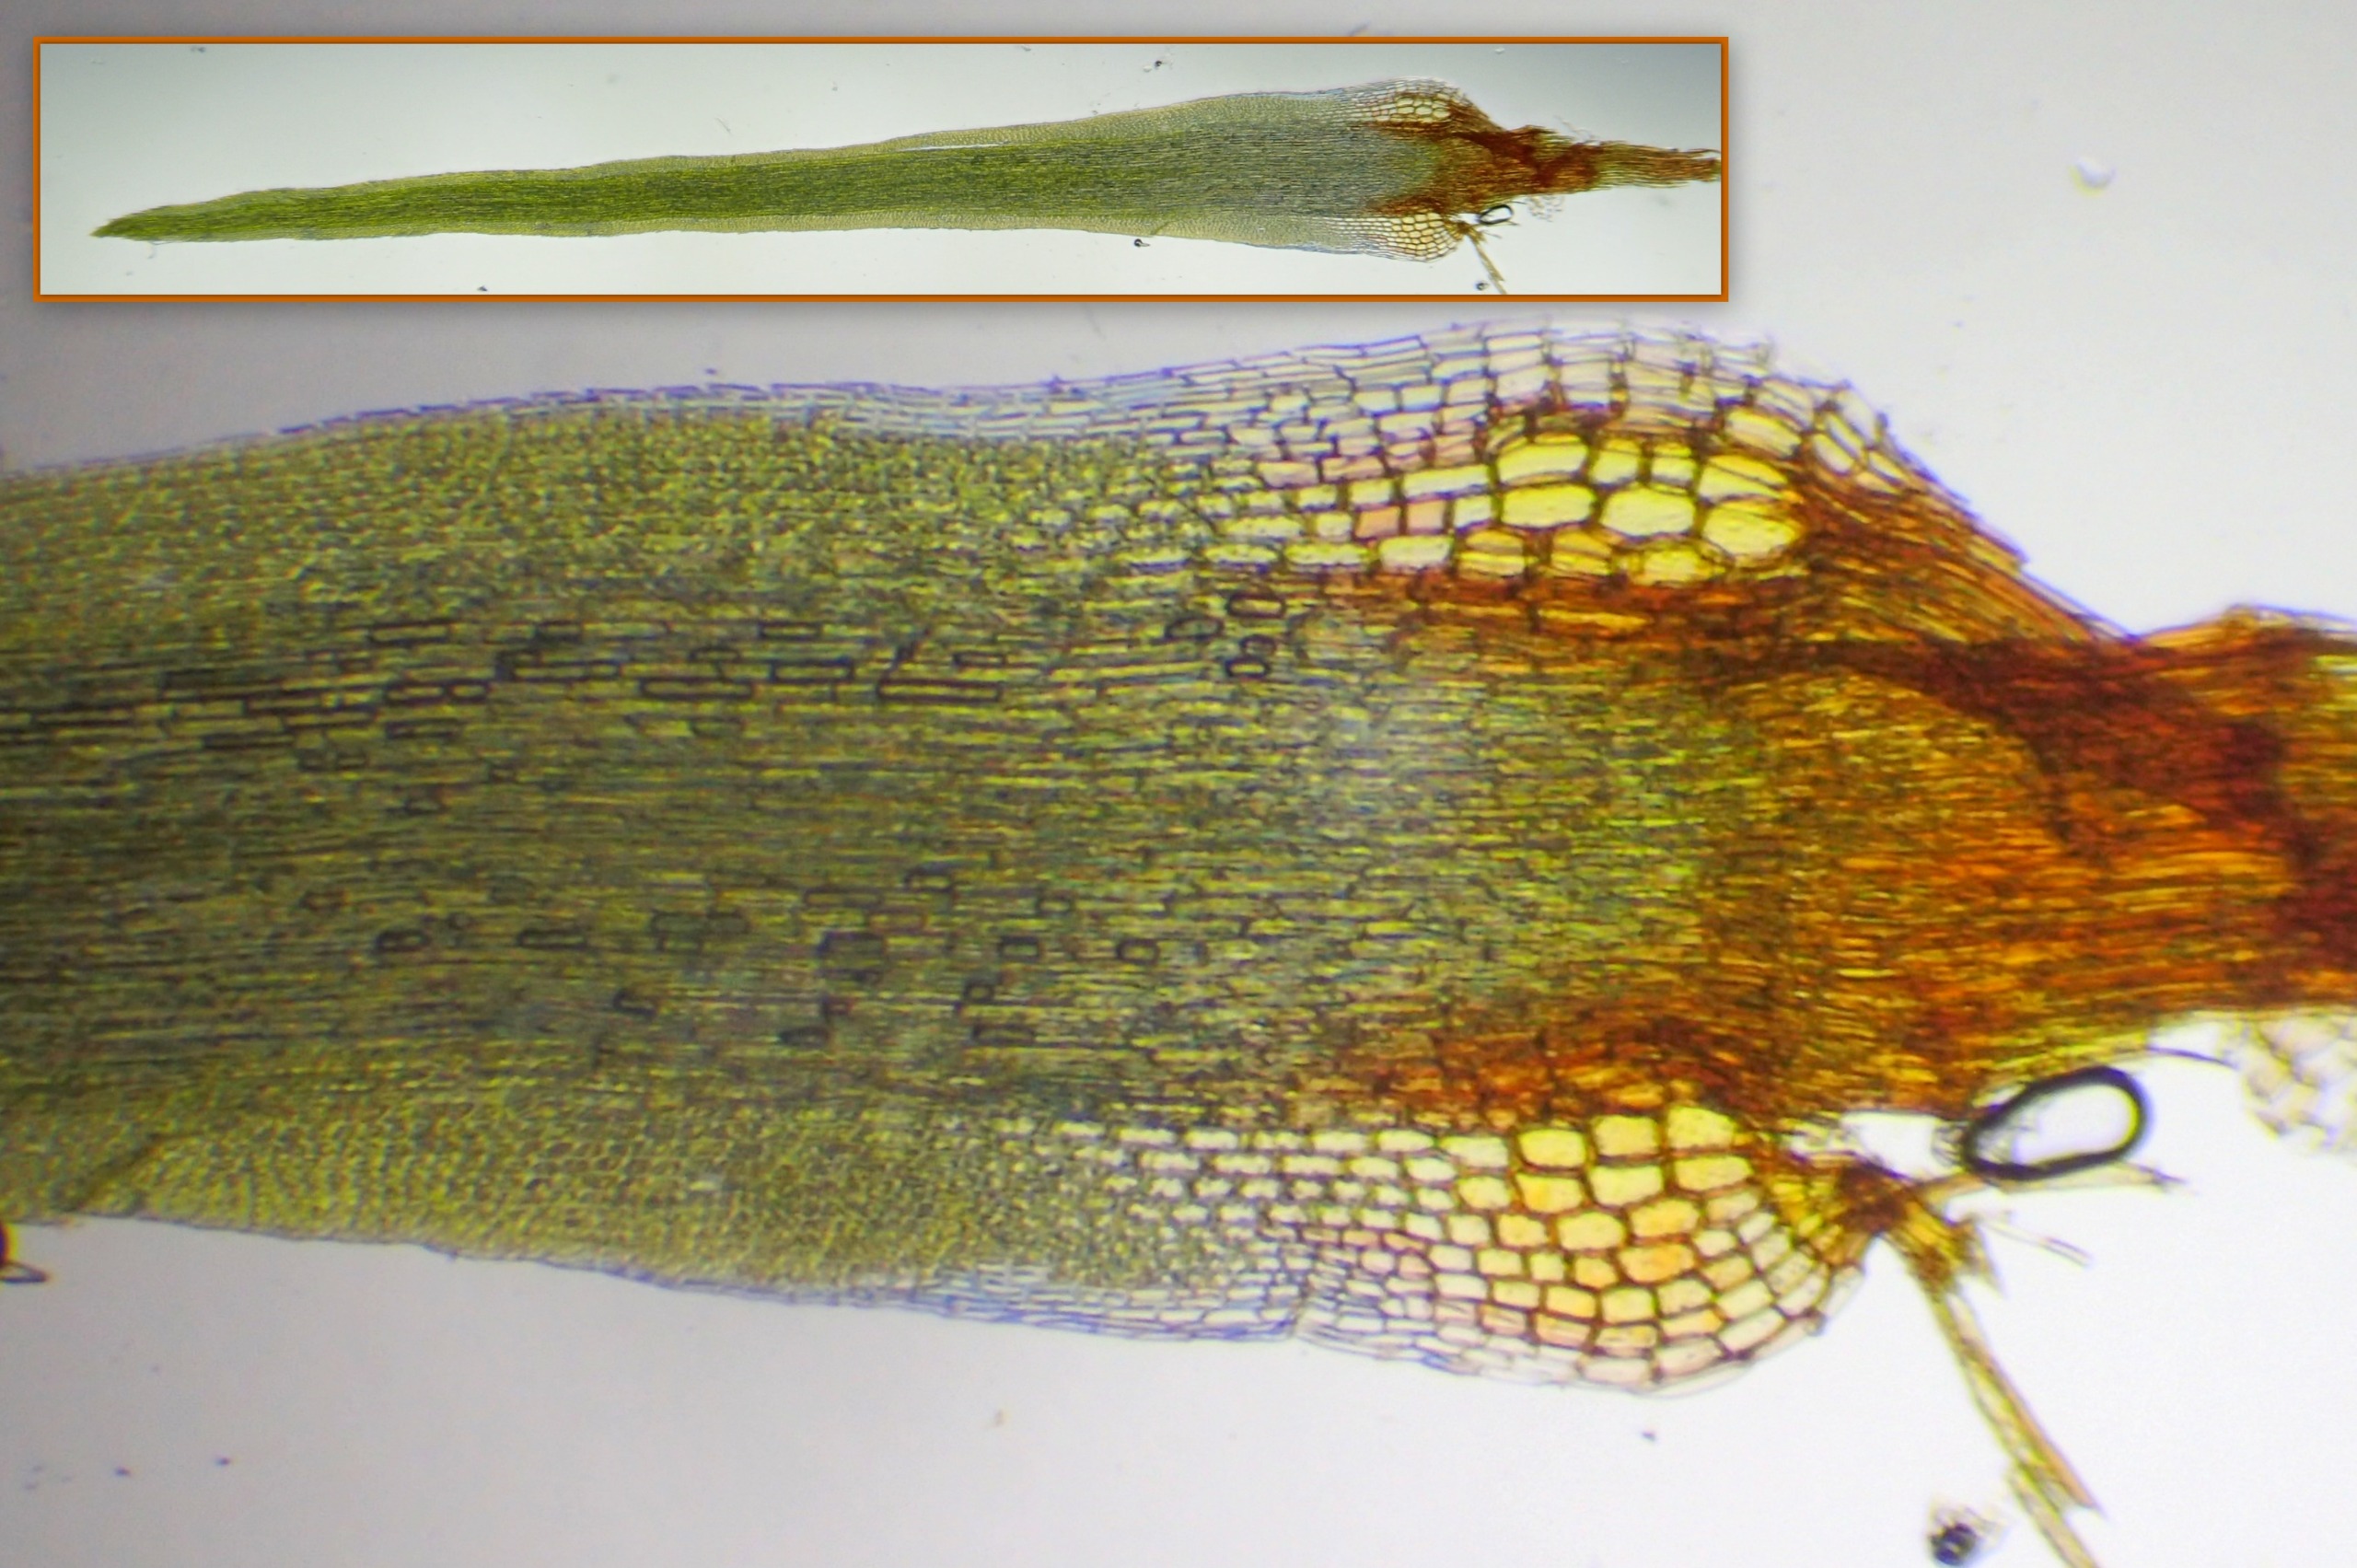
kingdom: Plantae
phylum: Bryophyta
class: Bryopsida
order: Dicranales
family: Leucobryaceae
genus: Campylopus
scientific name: Campylopus flexuosus
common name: Filtet bredribbe
